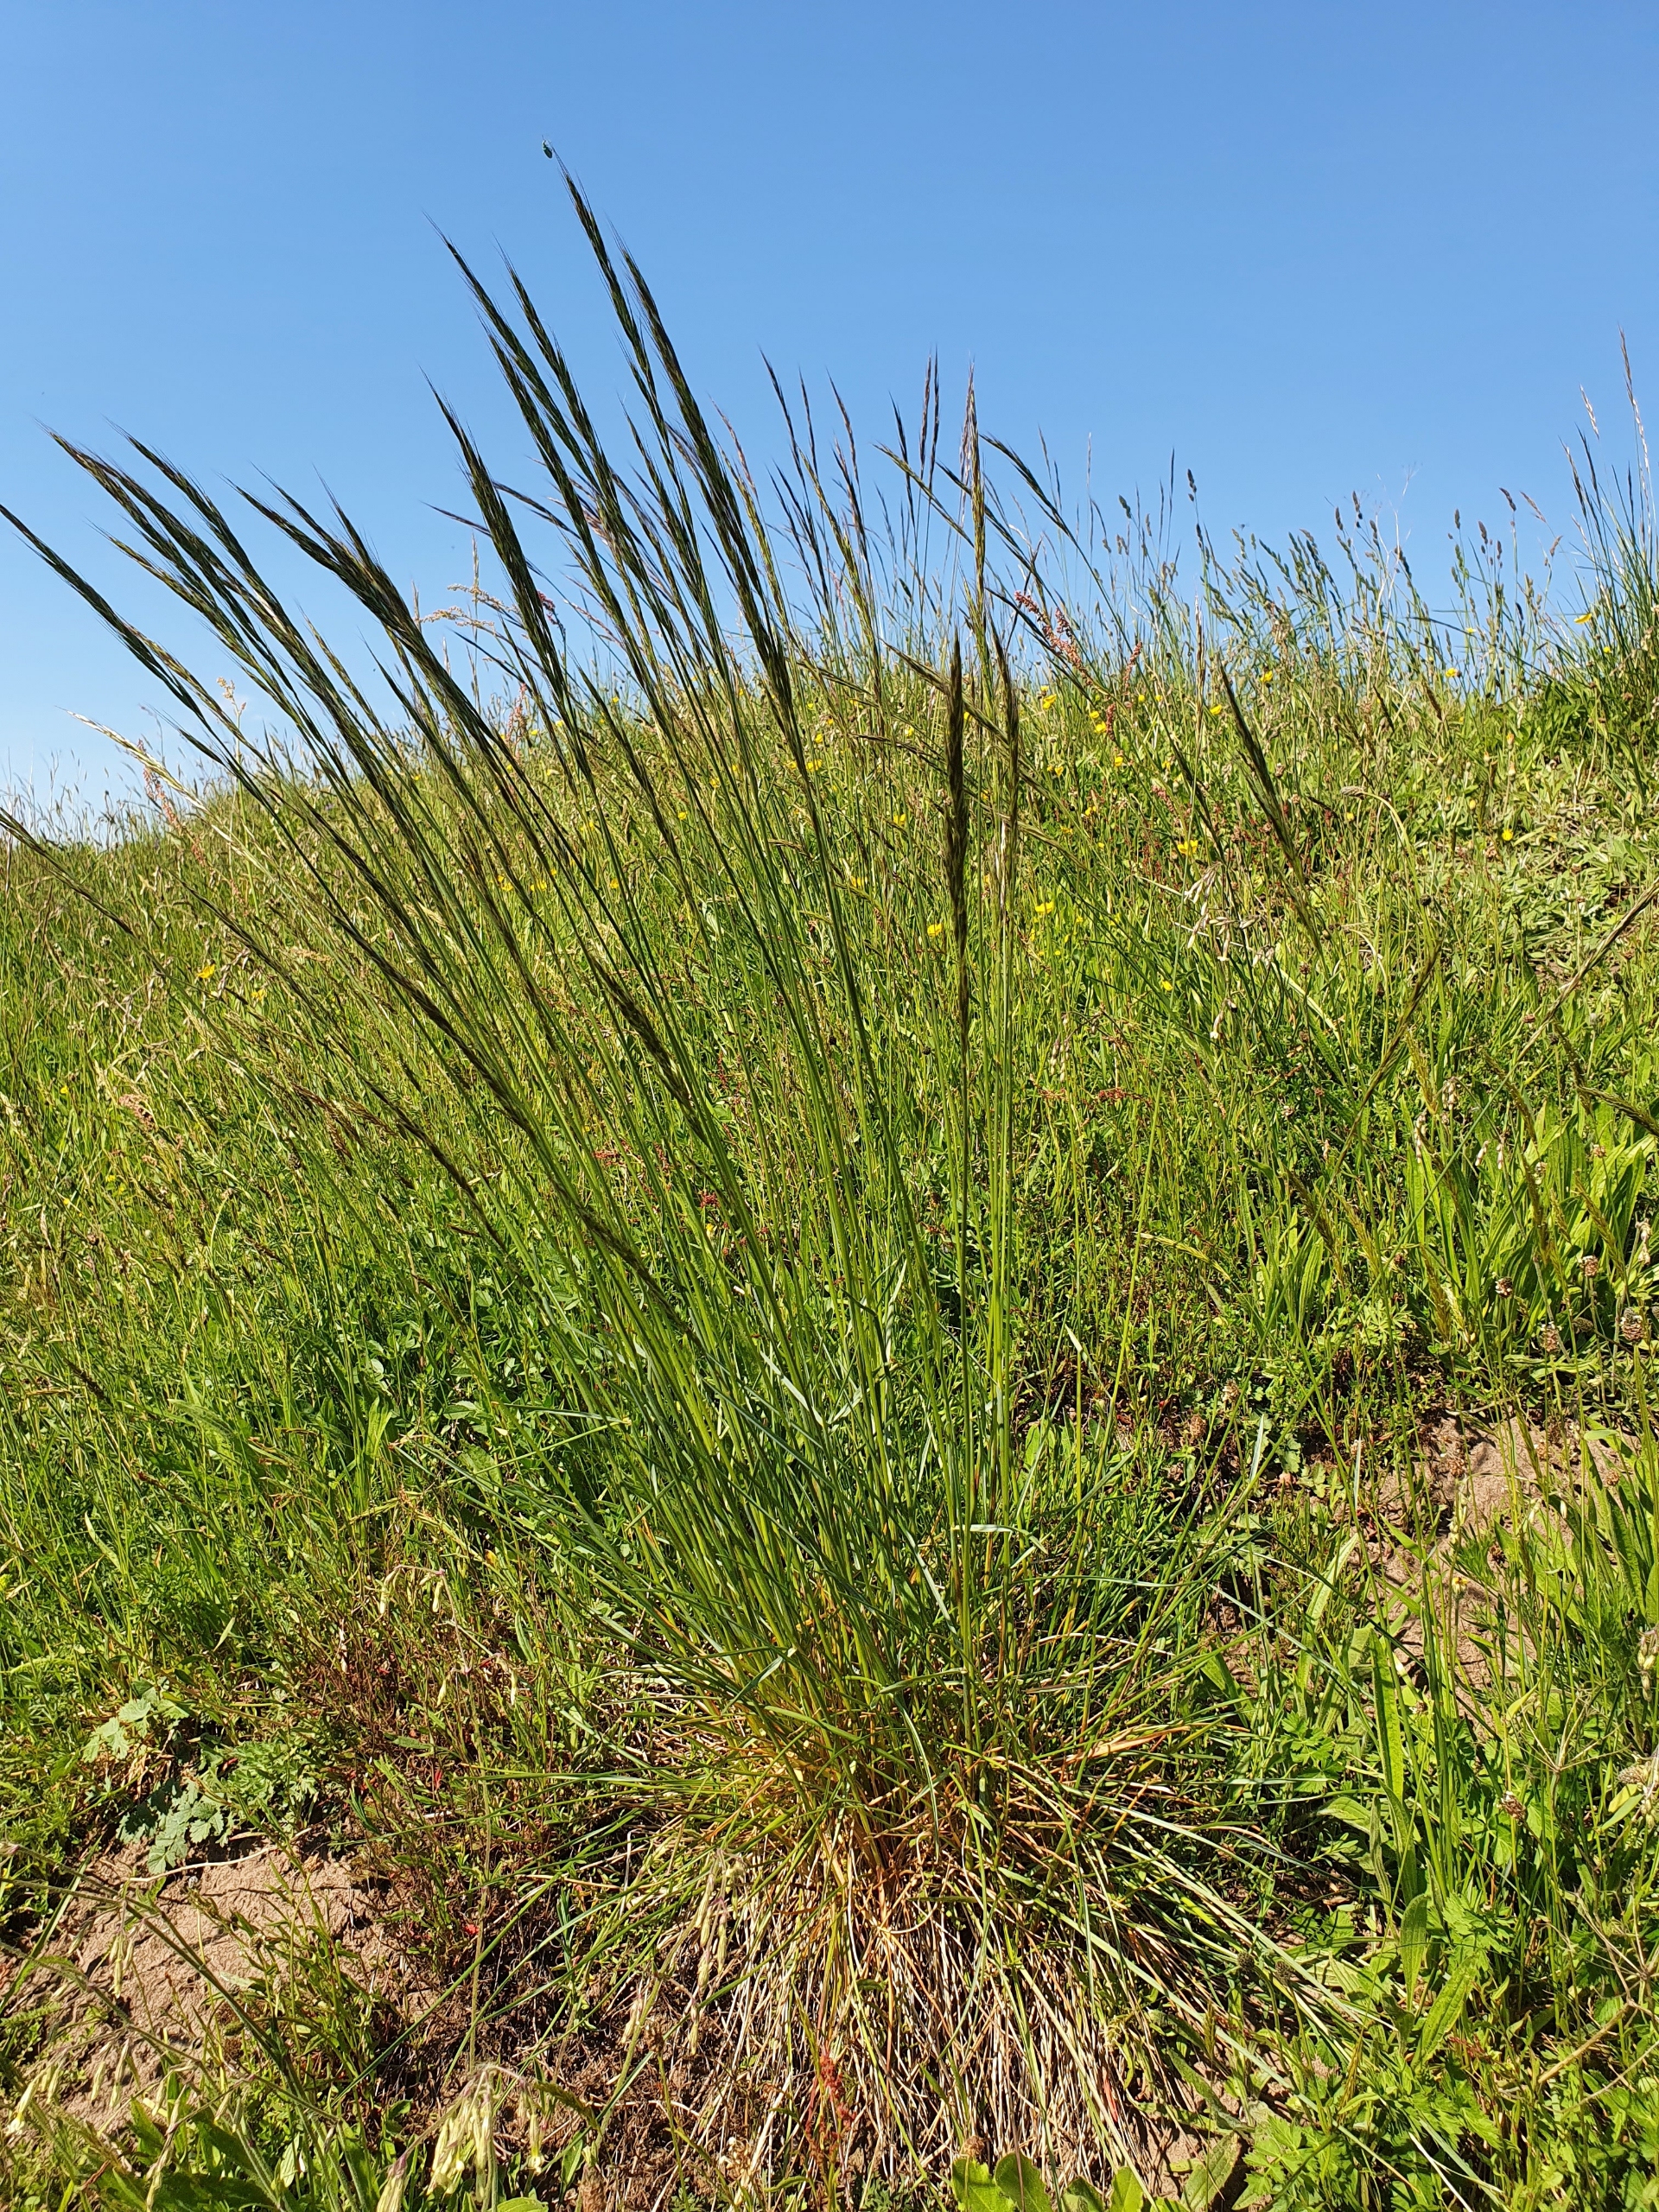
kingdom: Plantae
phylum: Tracheophyta
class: Liliopsida
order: Poales
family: Poaceae
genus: Helictochloa
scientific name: Helictochloa pratensis
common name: Eng-havre
